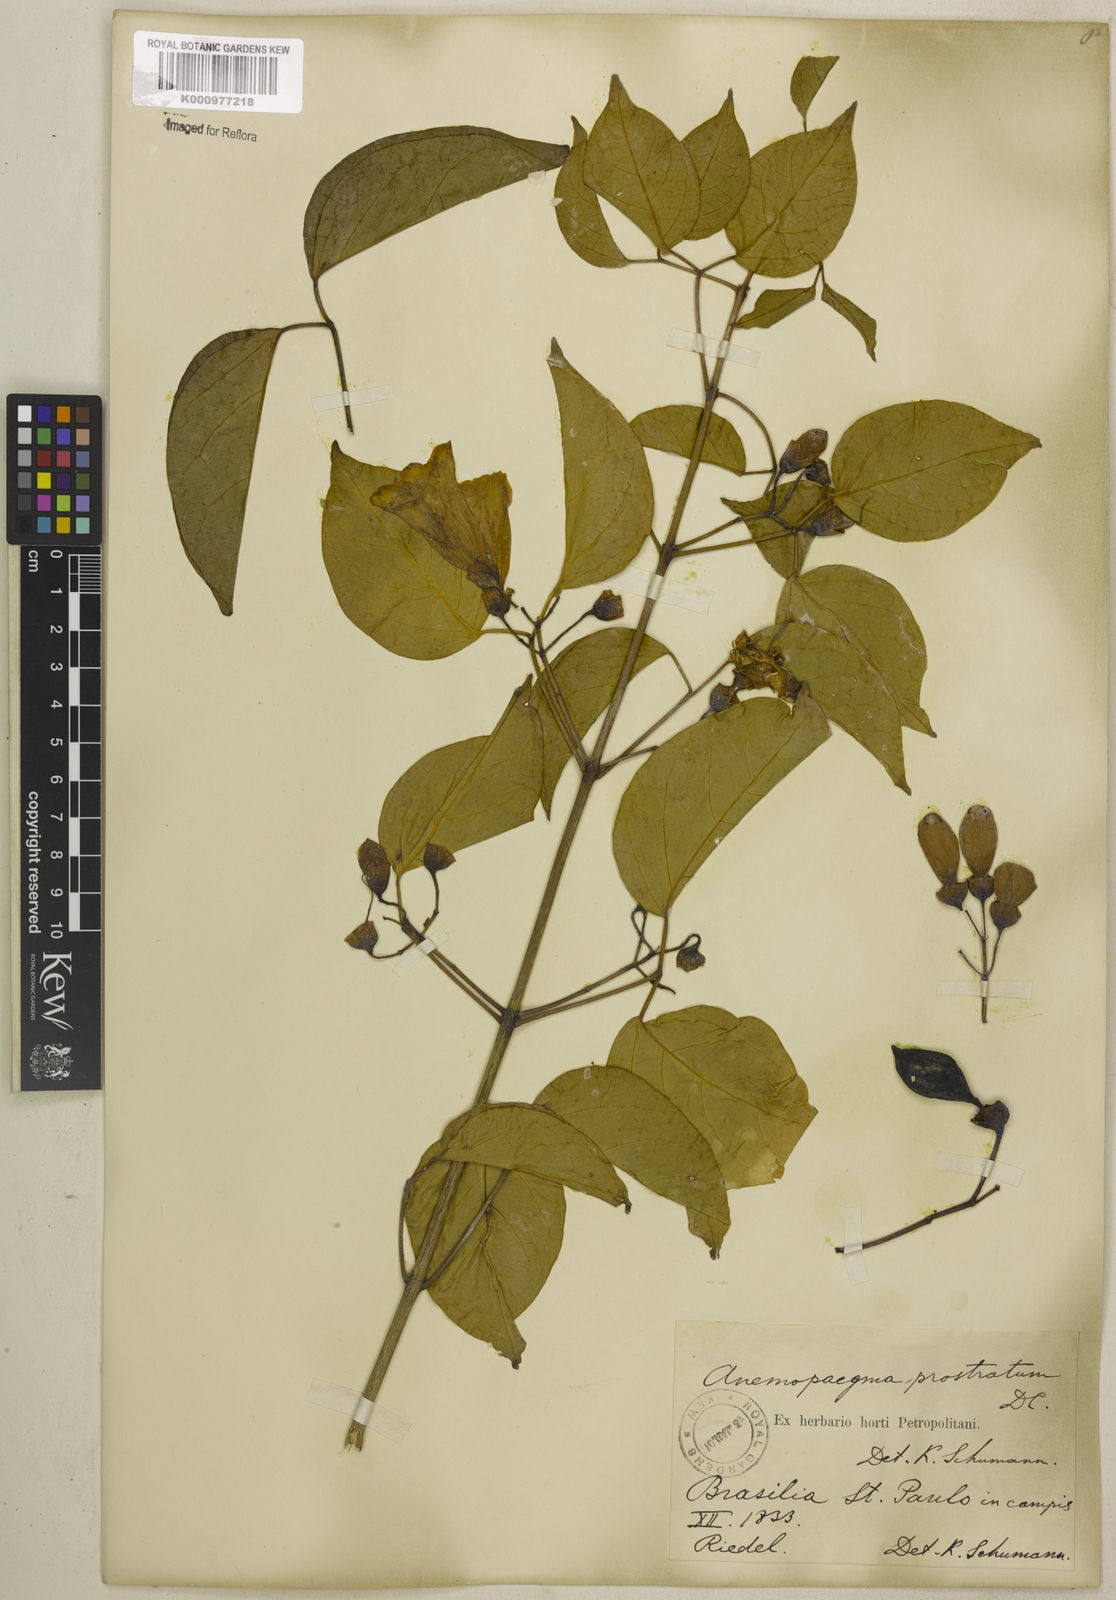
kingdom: Plantae
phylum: Tracheophyta
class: Magnoliopsida
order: Lamiales
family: Bignoniaceae
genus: Anemopaegma
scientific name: Anemopaegma prostratum
